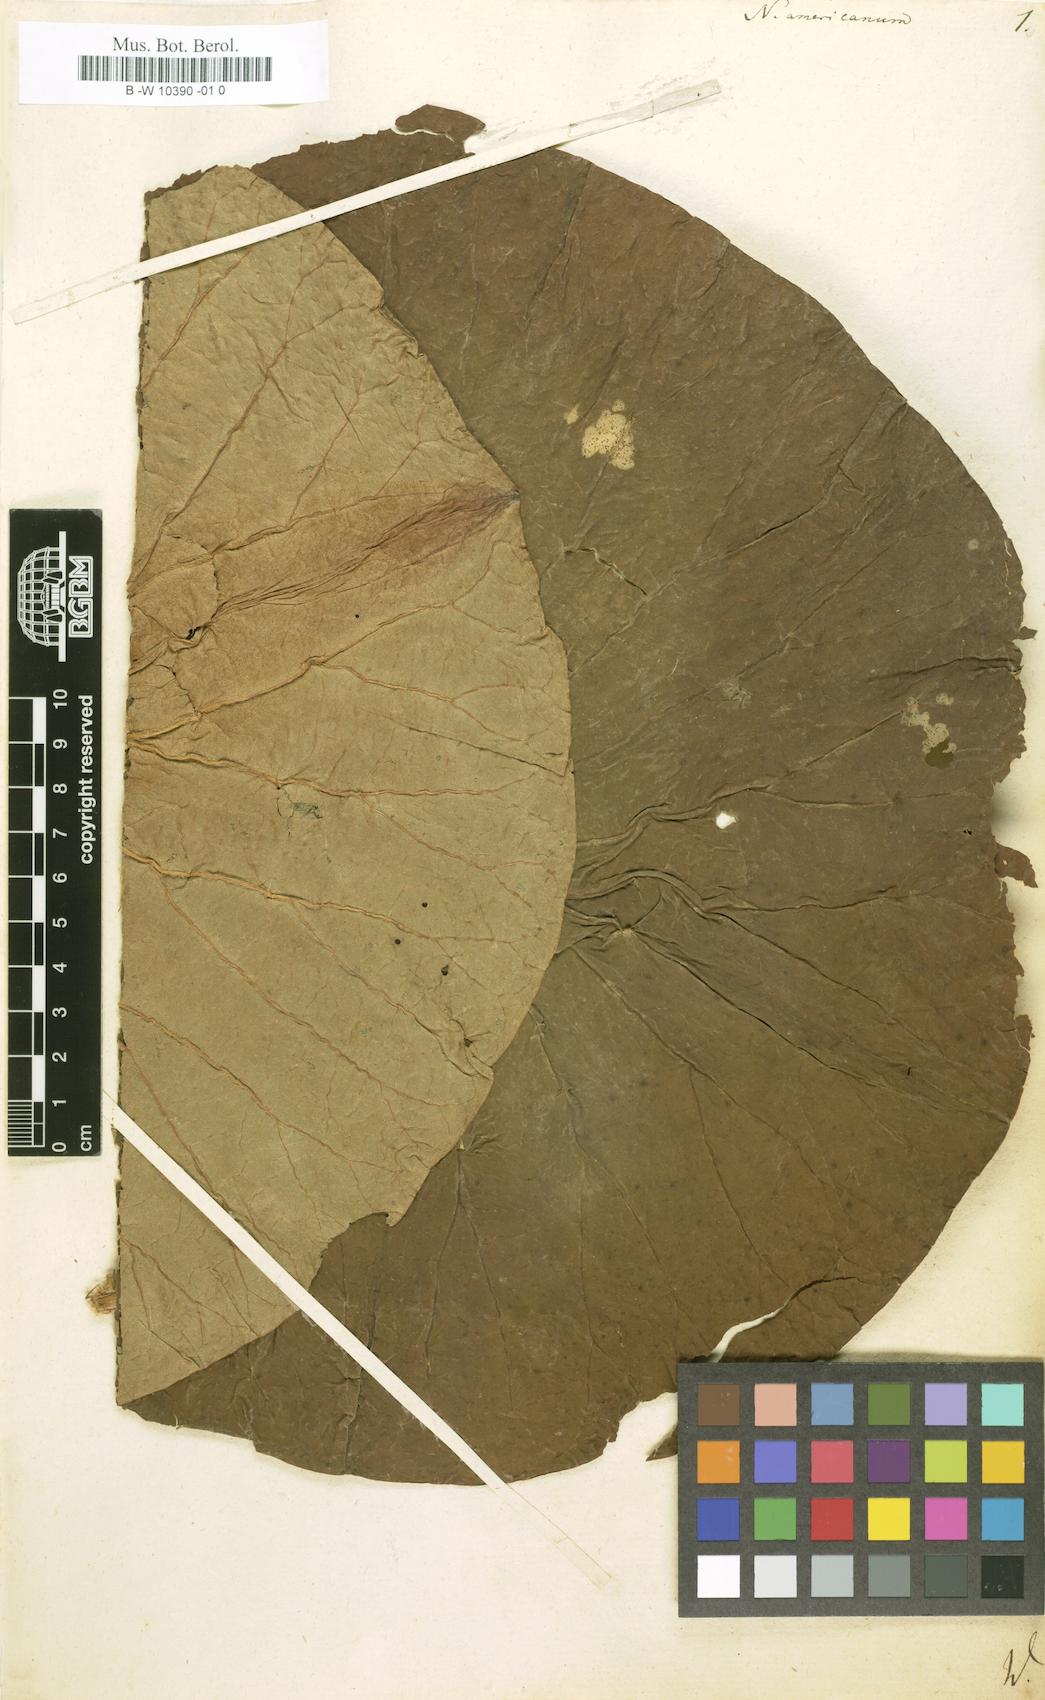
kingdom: Plantae
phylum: Tracheophyta
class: Magnoliopsida
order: Proteales
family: Nelumbonaceae
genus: Nelumbo
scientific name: Nelumbo
